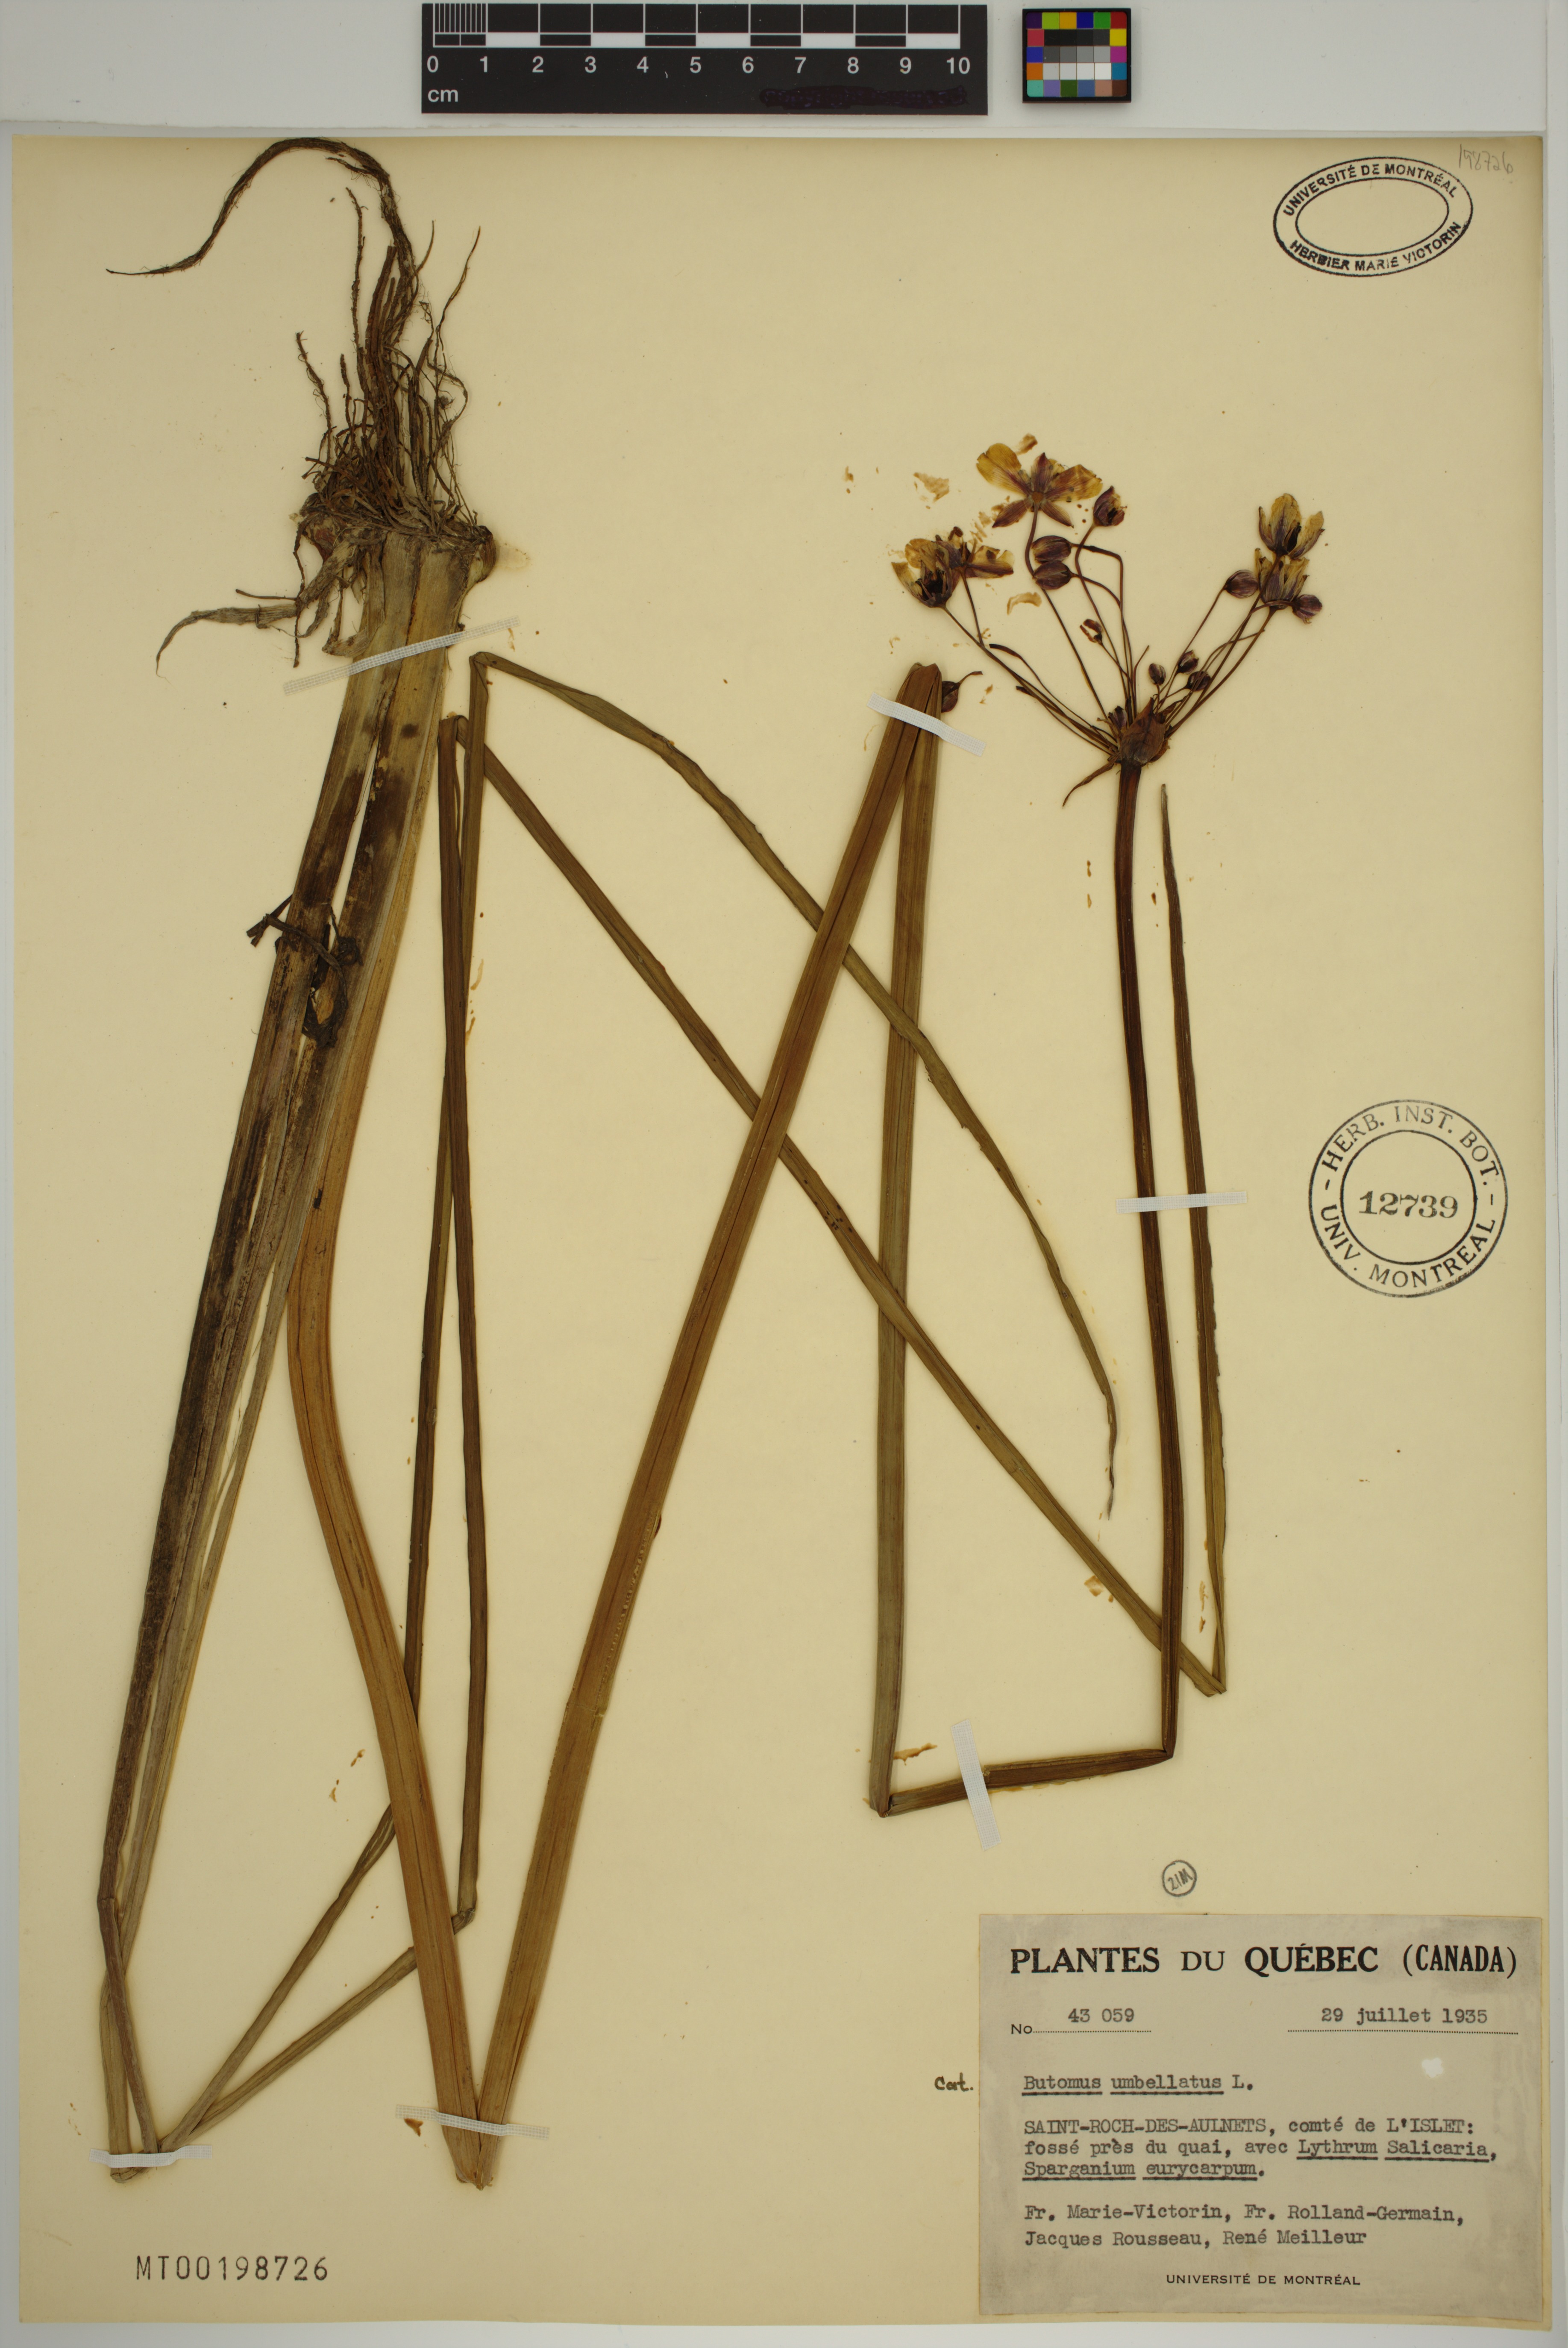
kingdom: Plantae
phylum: Tracheophyta
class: Liliopsida
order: Alismatales
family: Butomaceae
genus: Butomus
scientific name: Butomus umbellatus
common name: Flowering-rush
